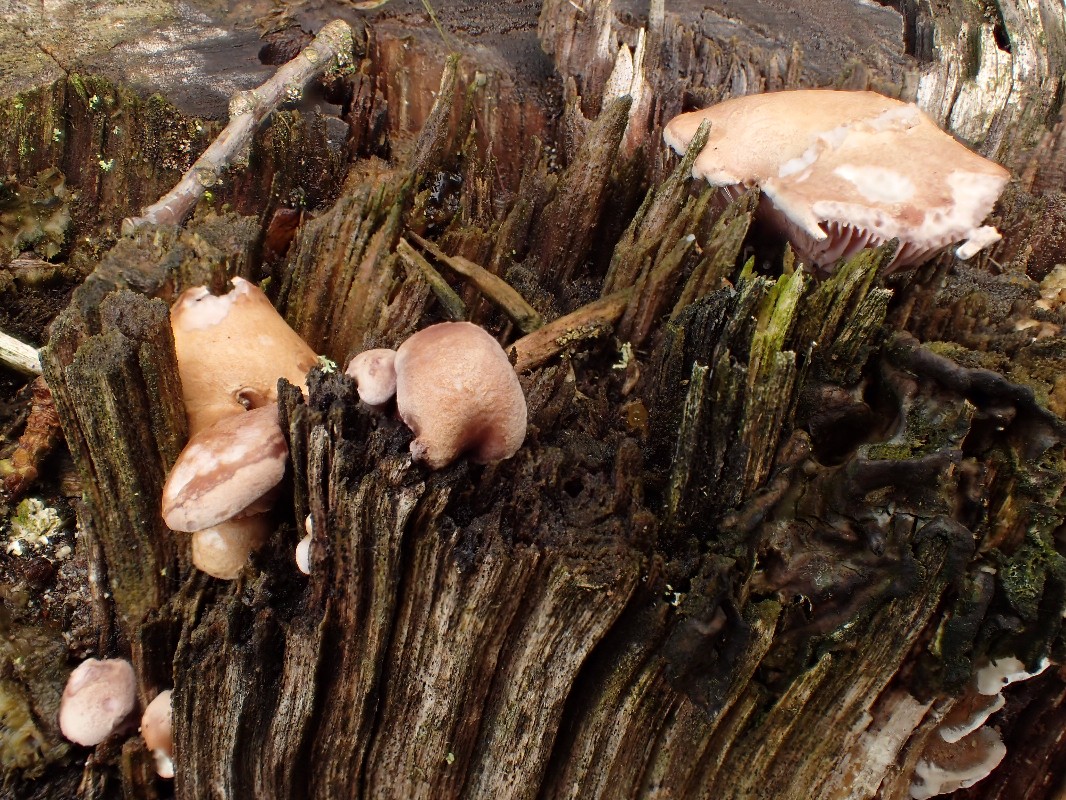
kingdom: Fungi
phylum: Basidiomycota
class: Agaricomycetes
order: Polyporales
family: Panaceae
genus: Panus
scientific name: Panus conchatus
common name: filtstokket læderhat
